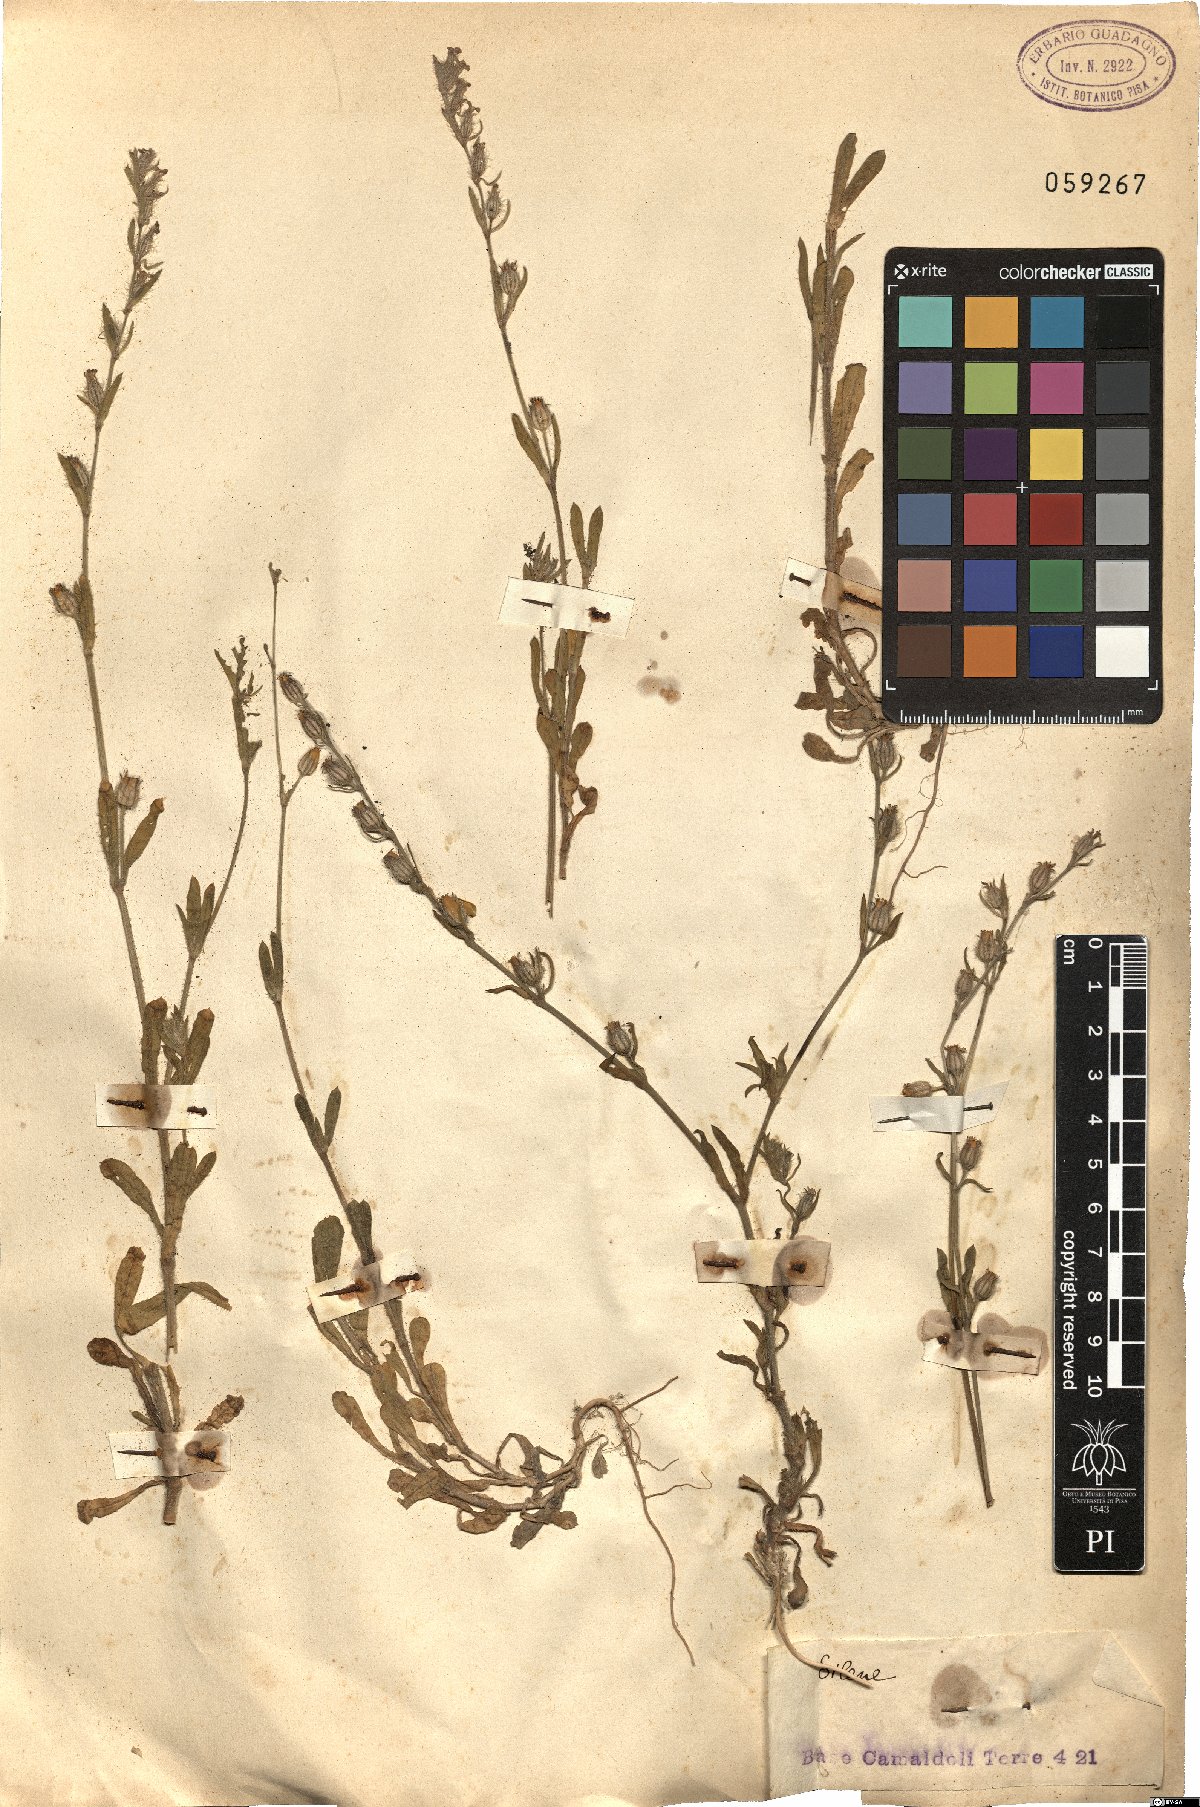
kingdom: Plantae
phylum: Tracheophyta
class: Magnoliopsida
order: Caryophyllales
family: Caryophyllaceae
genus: Silene
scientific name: Silene
